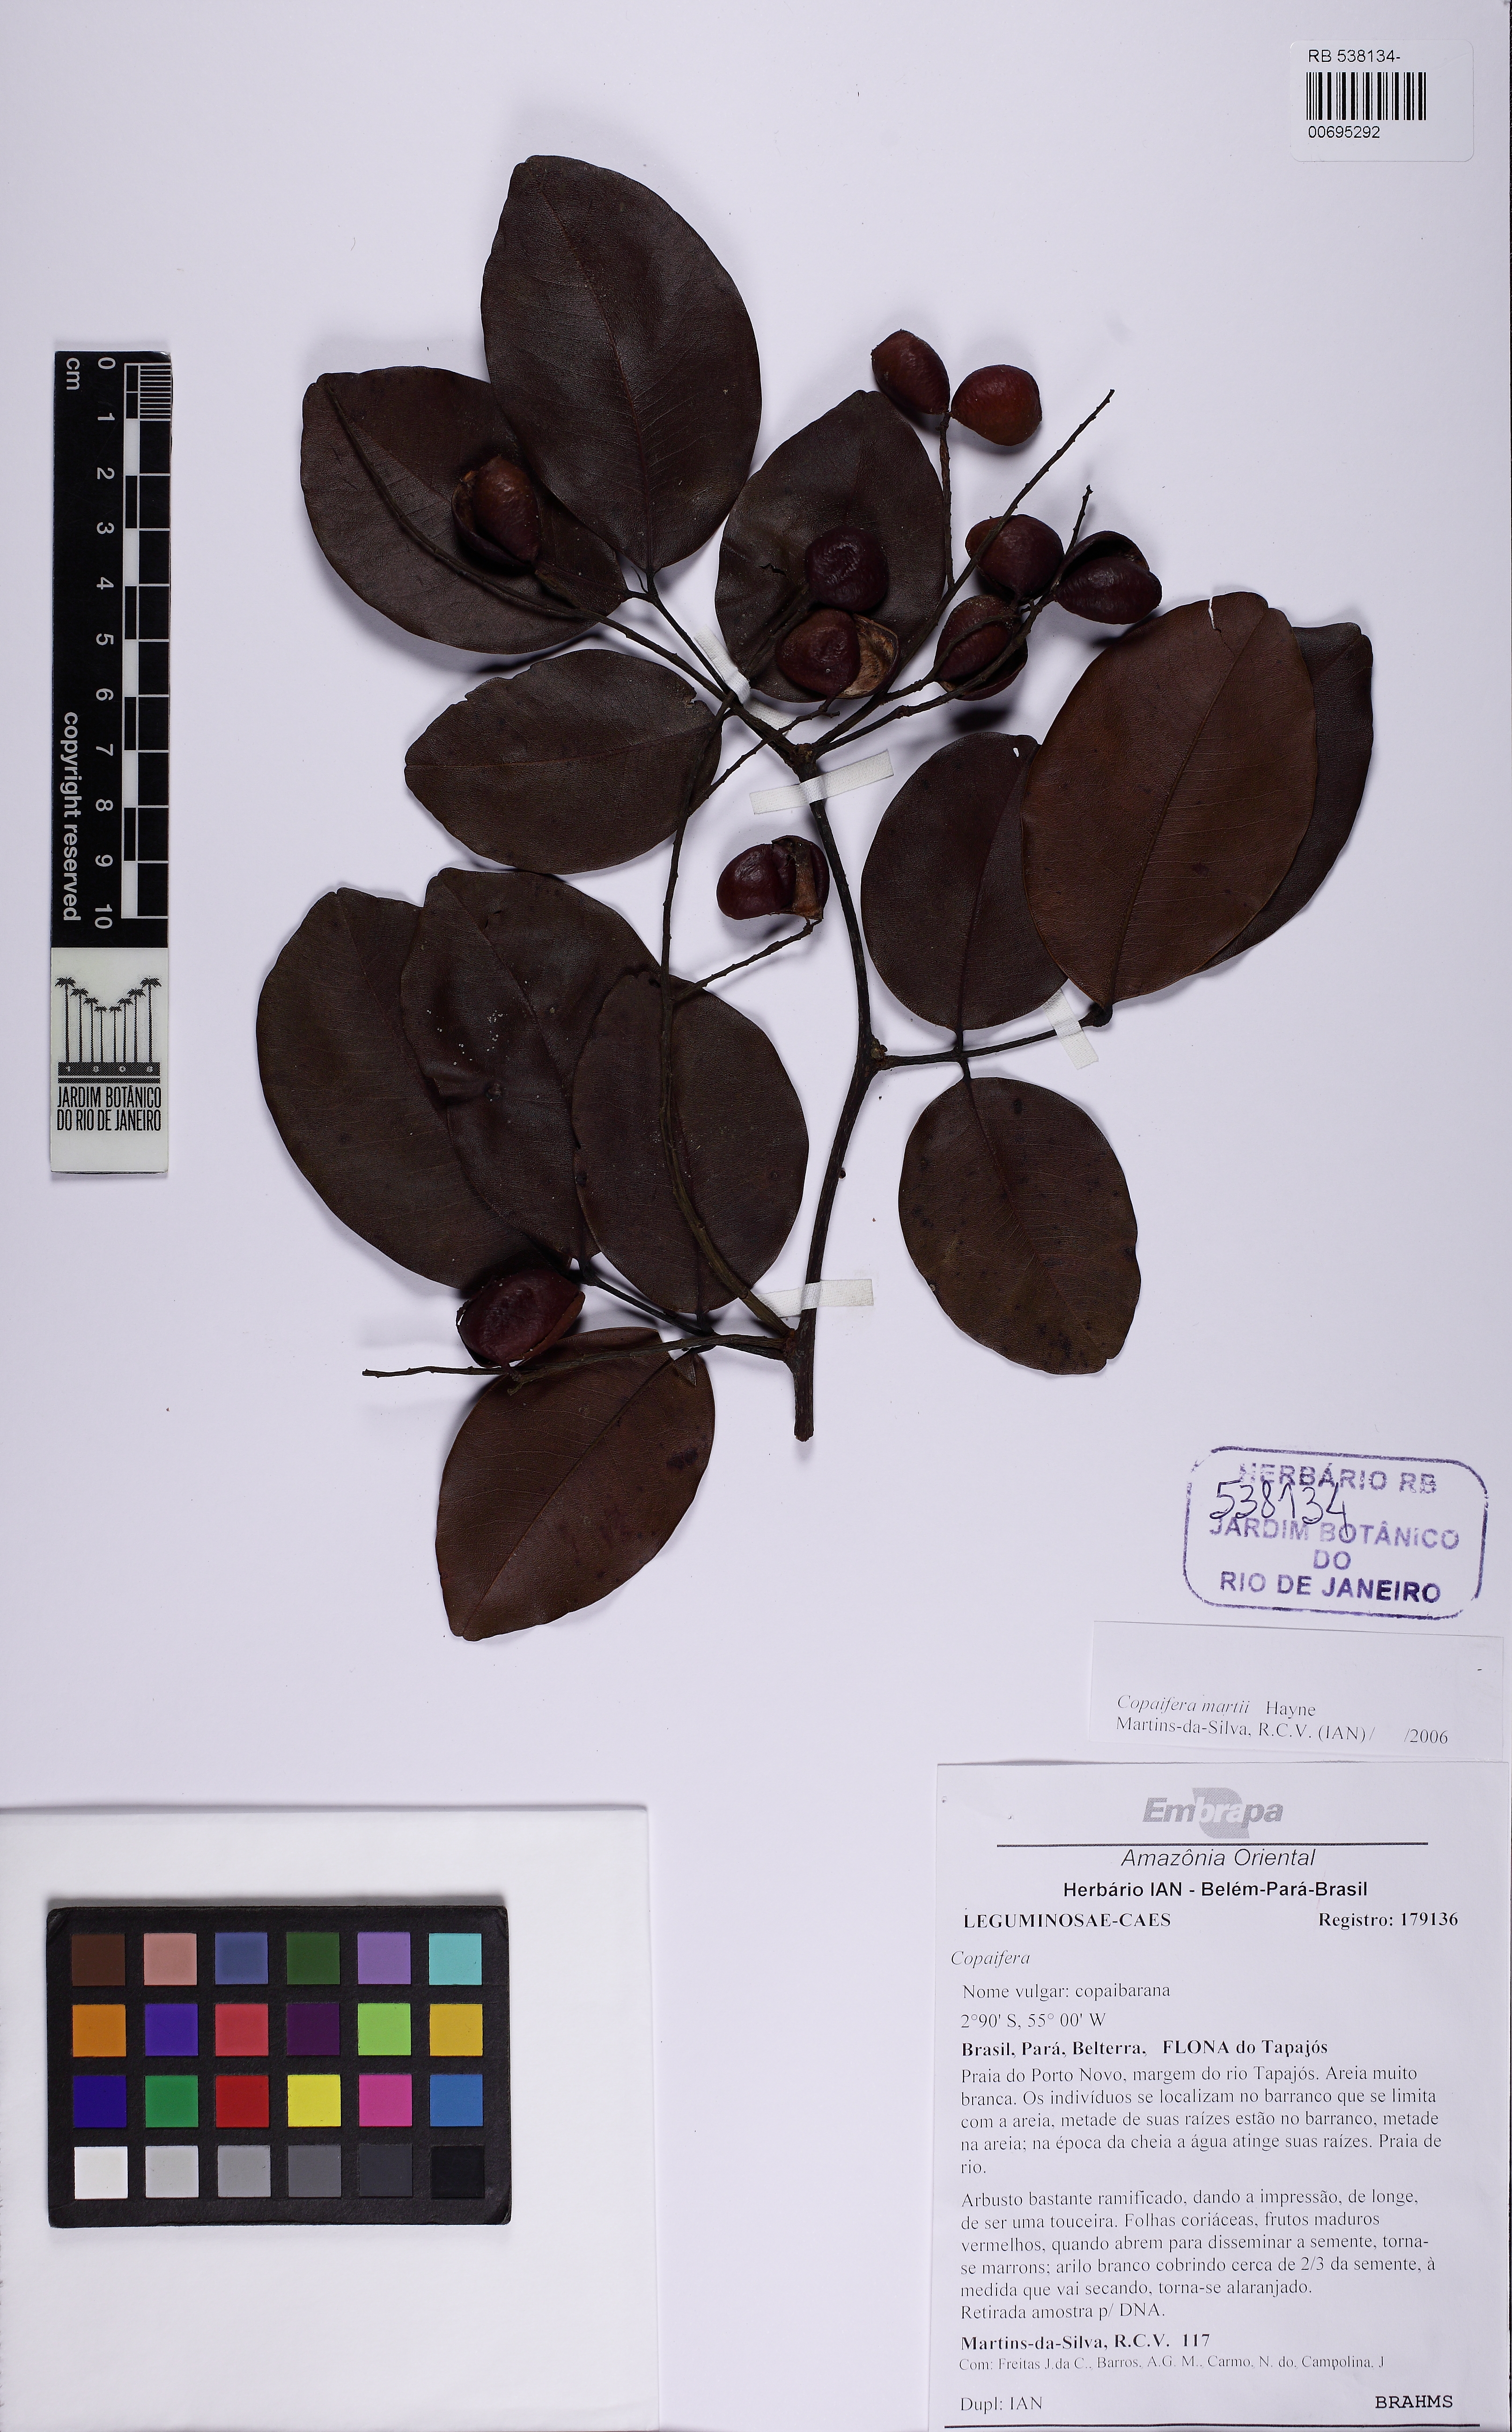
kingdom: Plantae
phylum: Tracheophyta
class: Magnoliopsida
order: Fabales
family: Fabaceae
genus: Copaifera
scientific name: Copaifera
